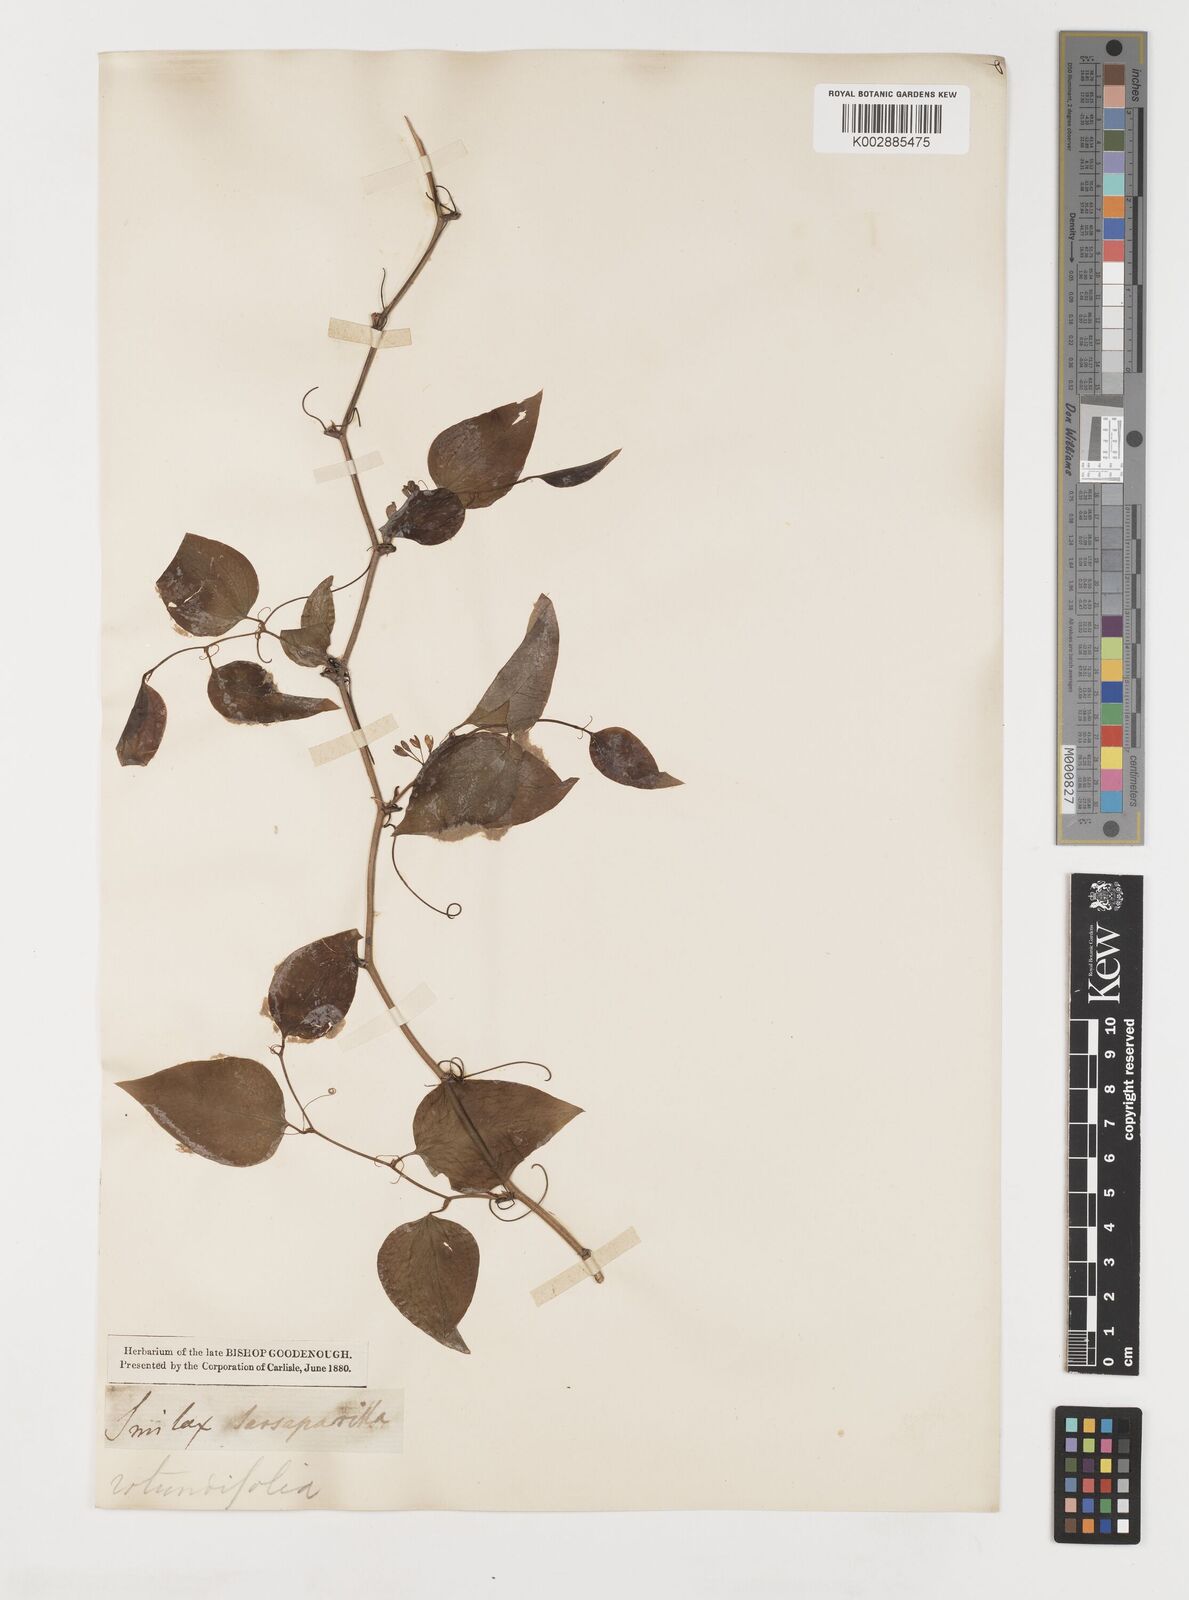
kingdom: Plantae
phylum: Tracheophyta
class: Liliopsida
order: Liliales
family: Smilacaceae
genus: Smilax
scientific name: Smilax
